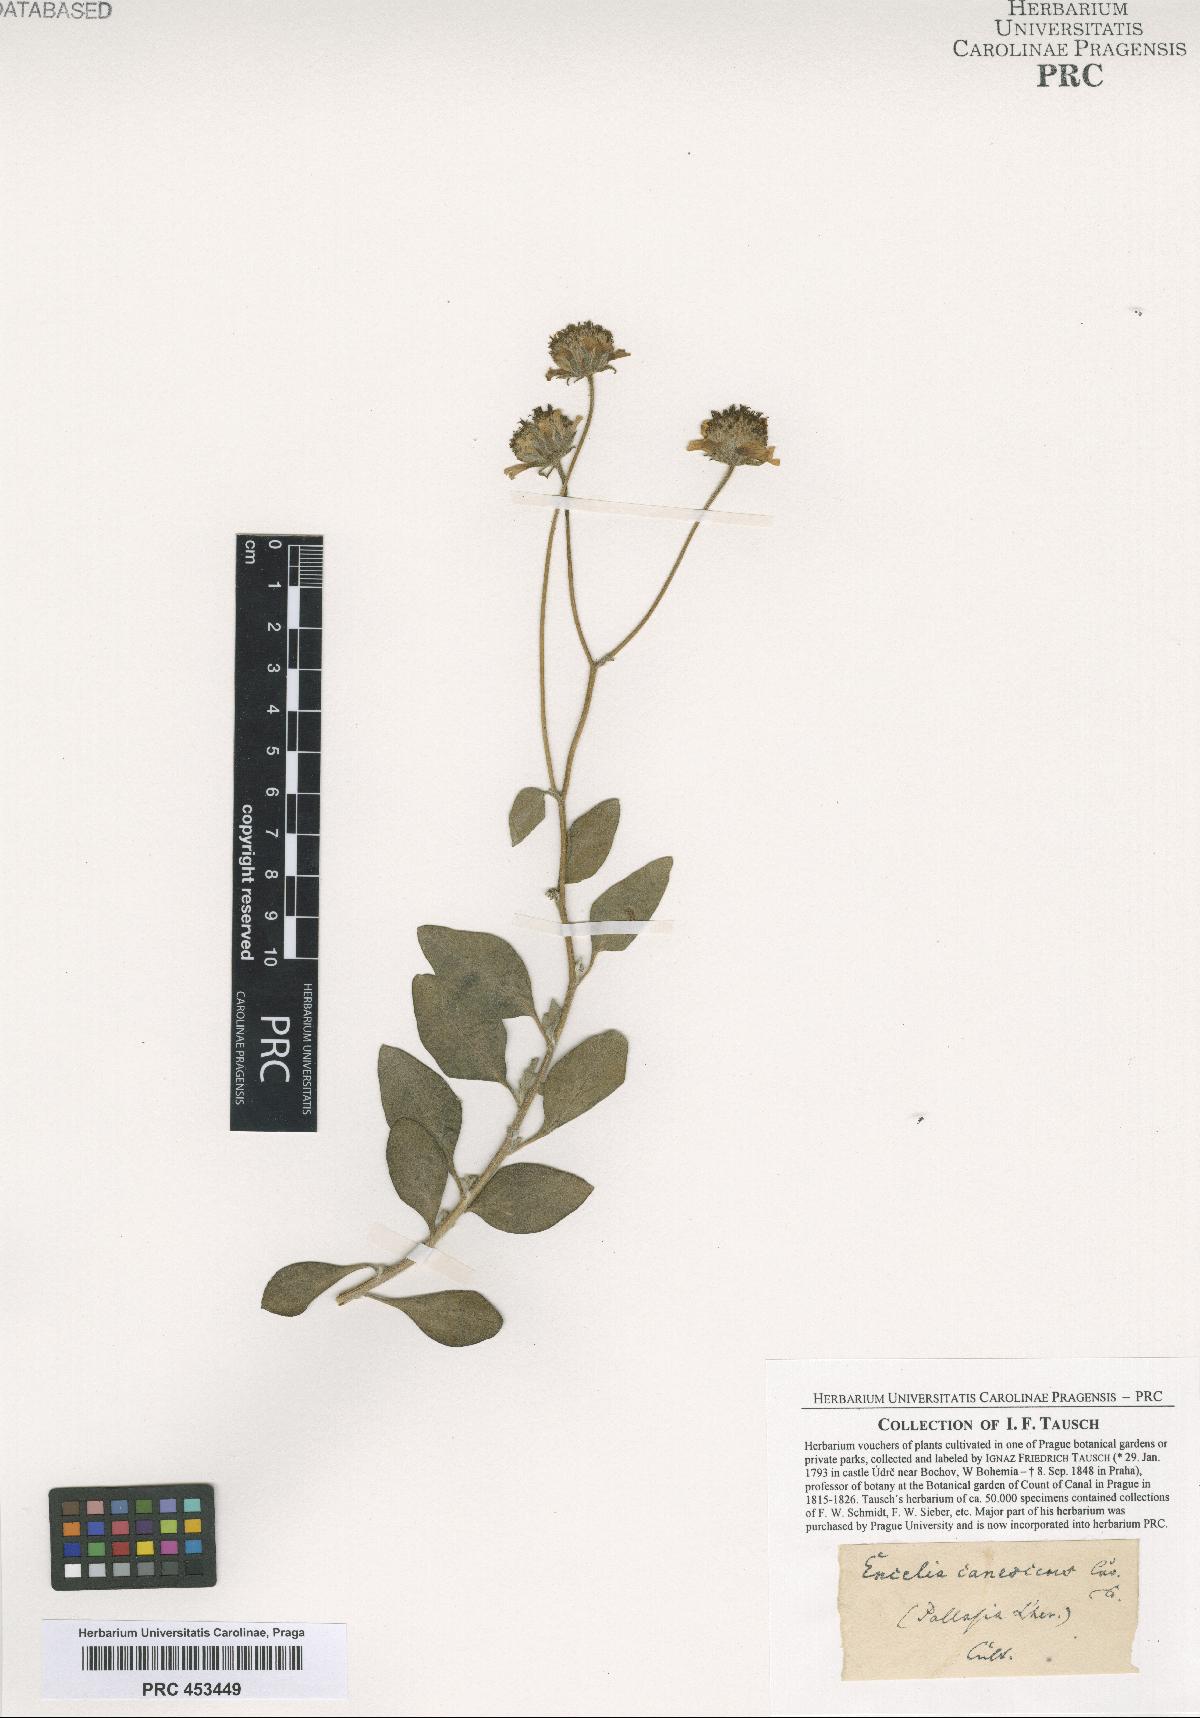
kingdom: Plantae
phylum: Tracheophyta
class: Magnoliopsida
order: Asterales
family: Asteraceae
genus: Encelia
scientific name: Encelia
